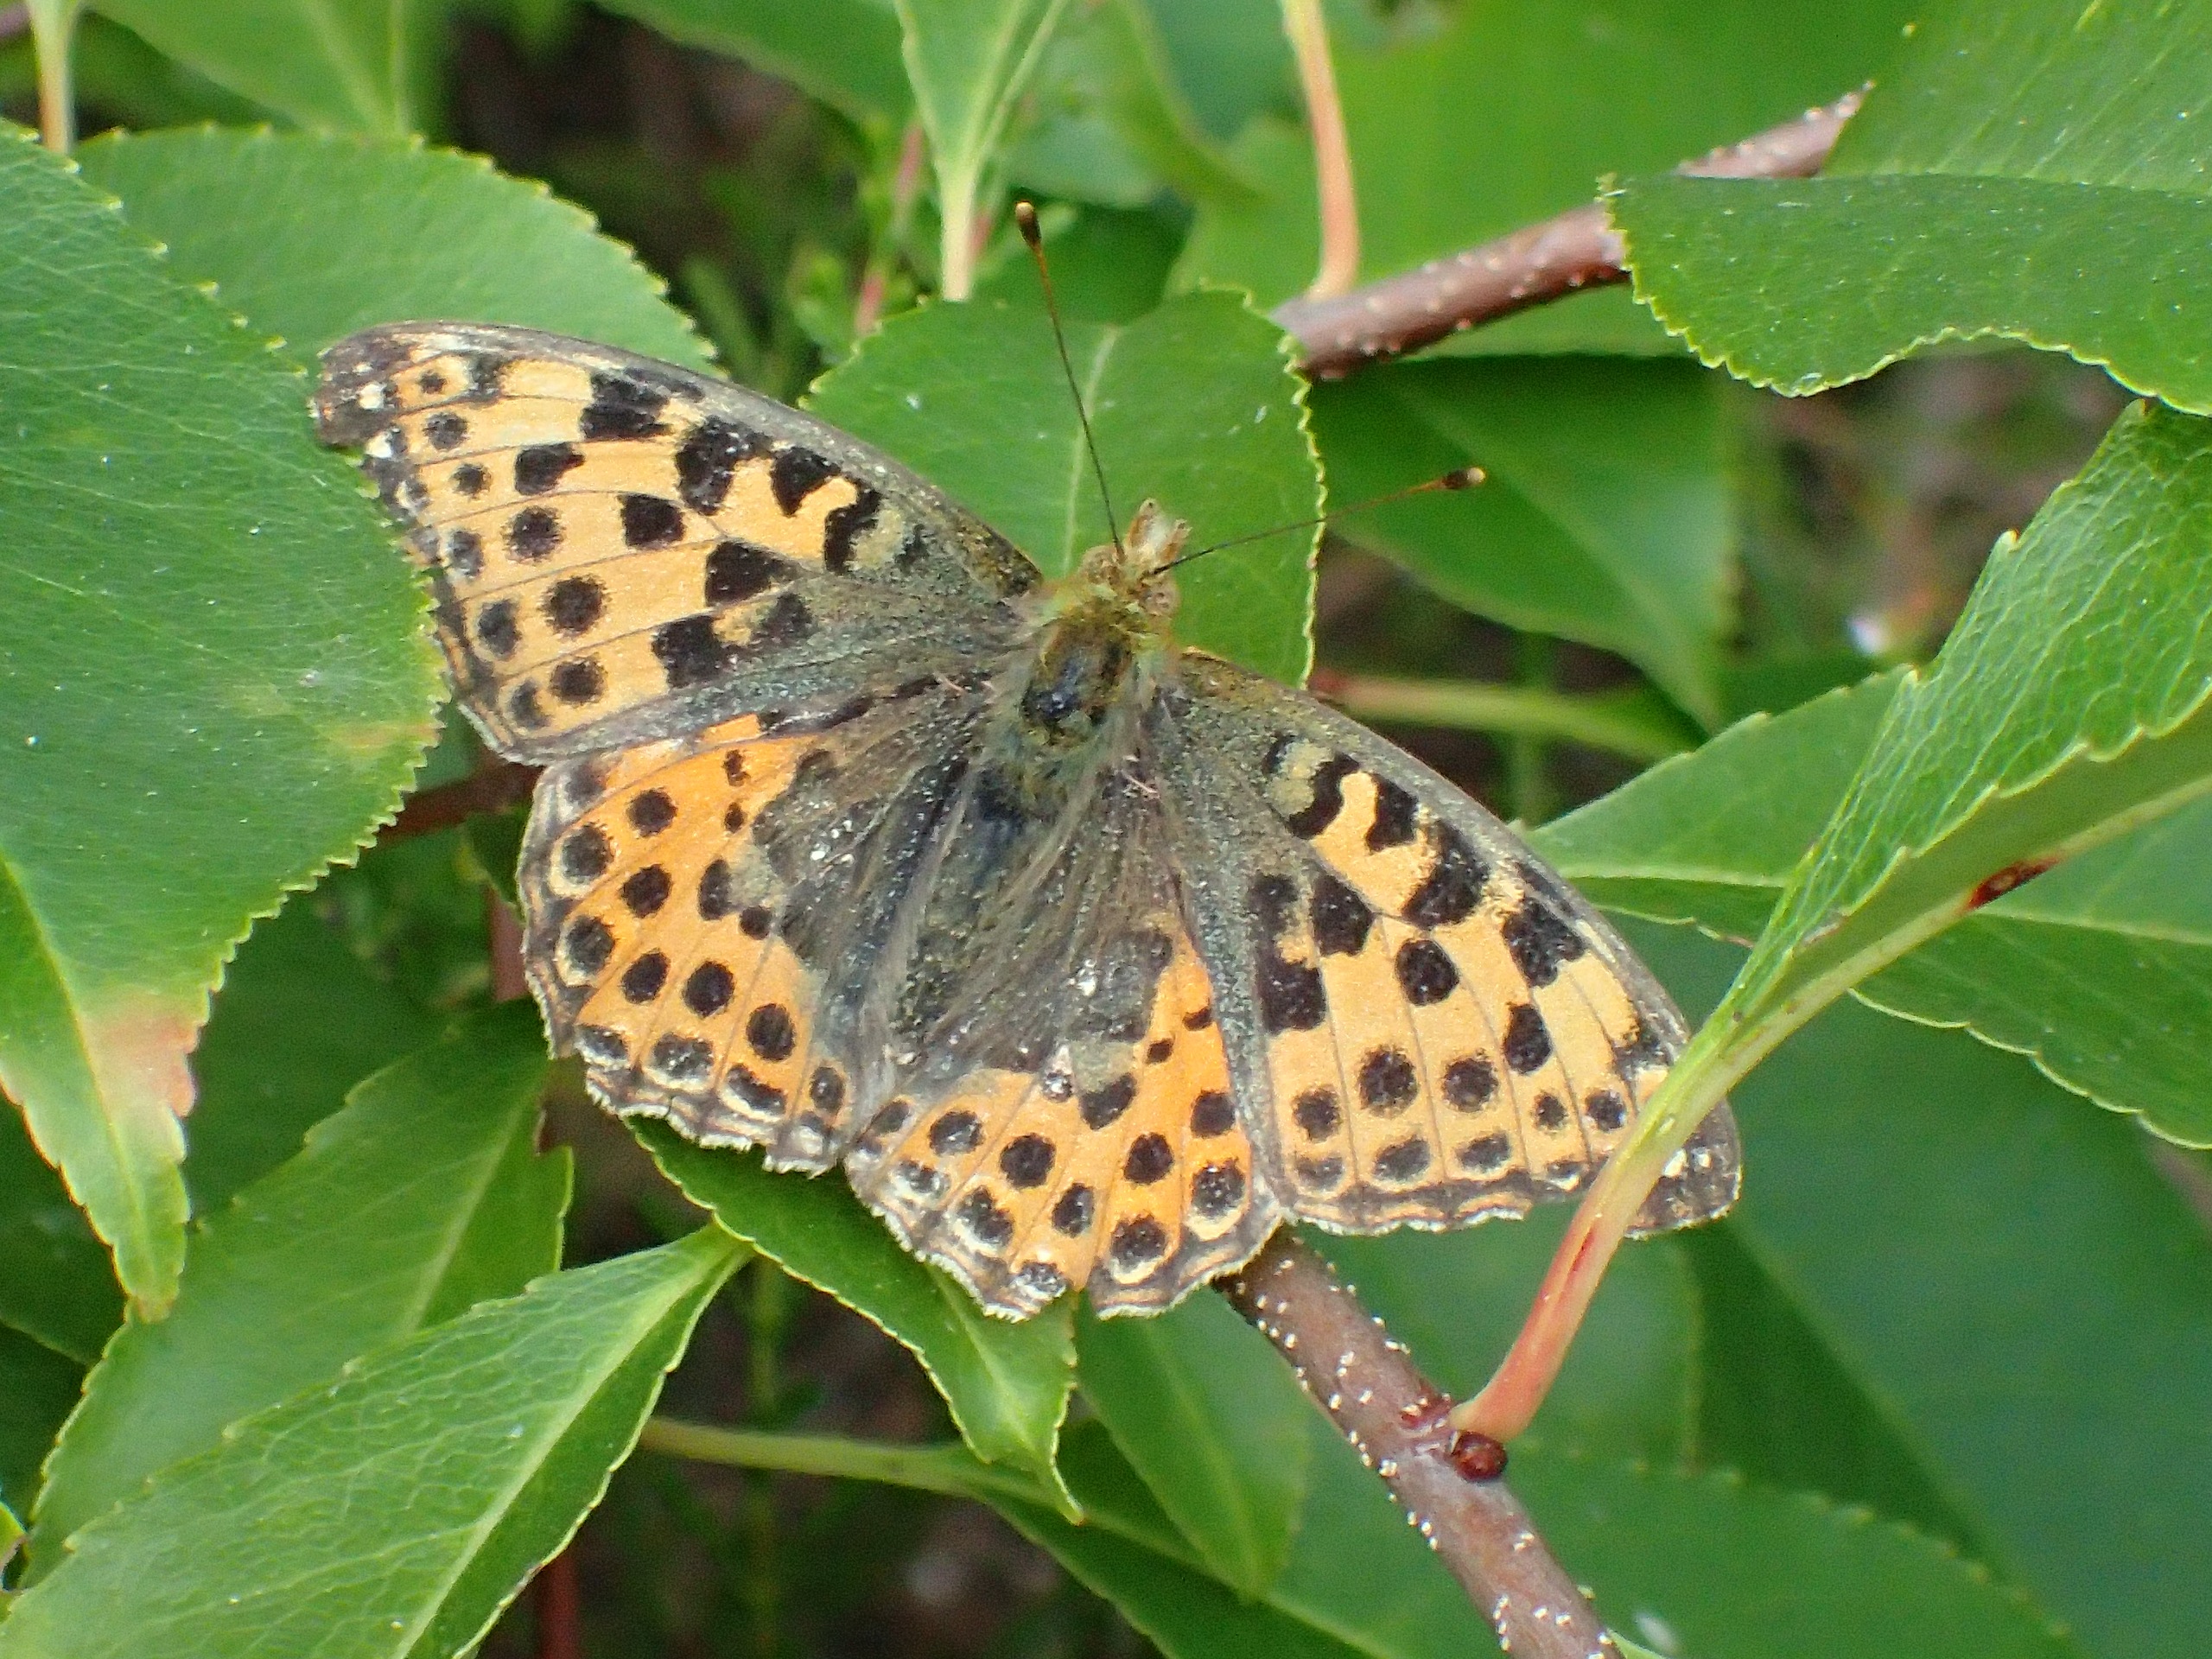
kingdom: Animalia
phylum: Arthropoda
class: Insecta
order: Lepidoptera
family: Nymphalidae
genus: Issoria
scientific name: Issoria lathonia
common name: Storplettet perlemorsommerfugl
